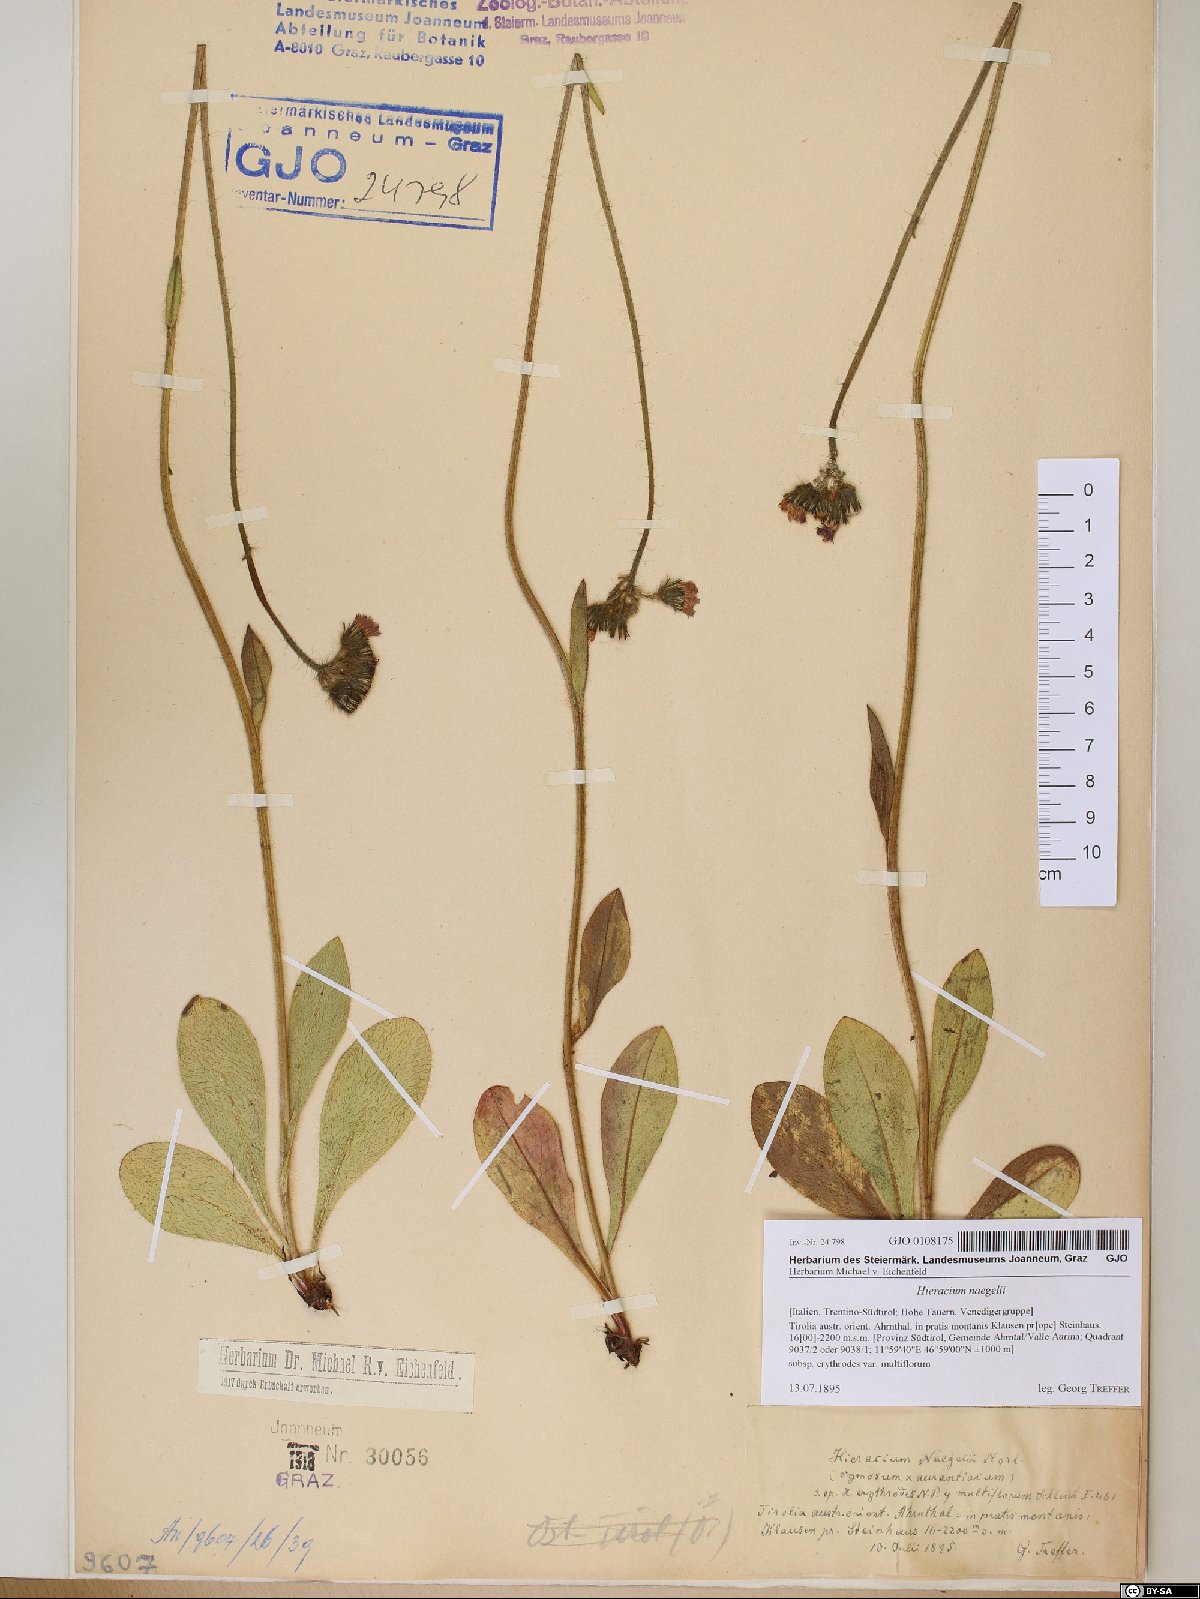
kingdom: Plantae
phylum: Tracheophyta
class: Magnoliopsida
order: Asterales
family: Asteraceae
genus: Pilosella
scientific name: Pilosella guthnikiana
